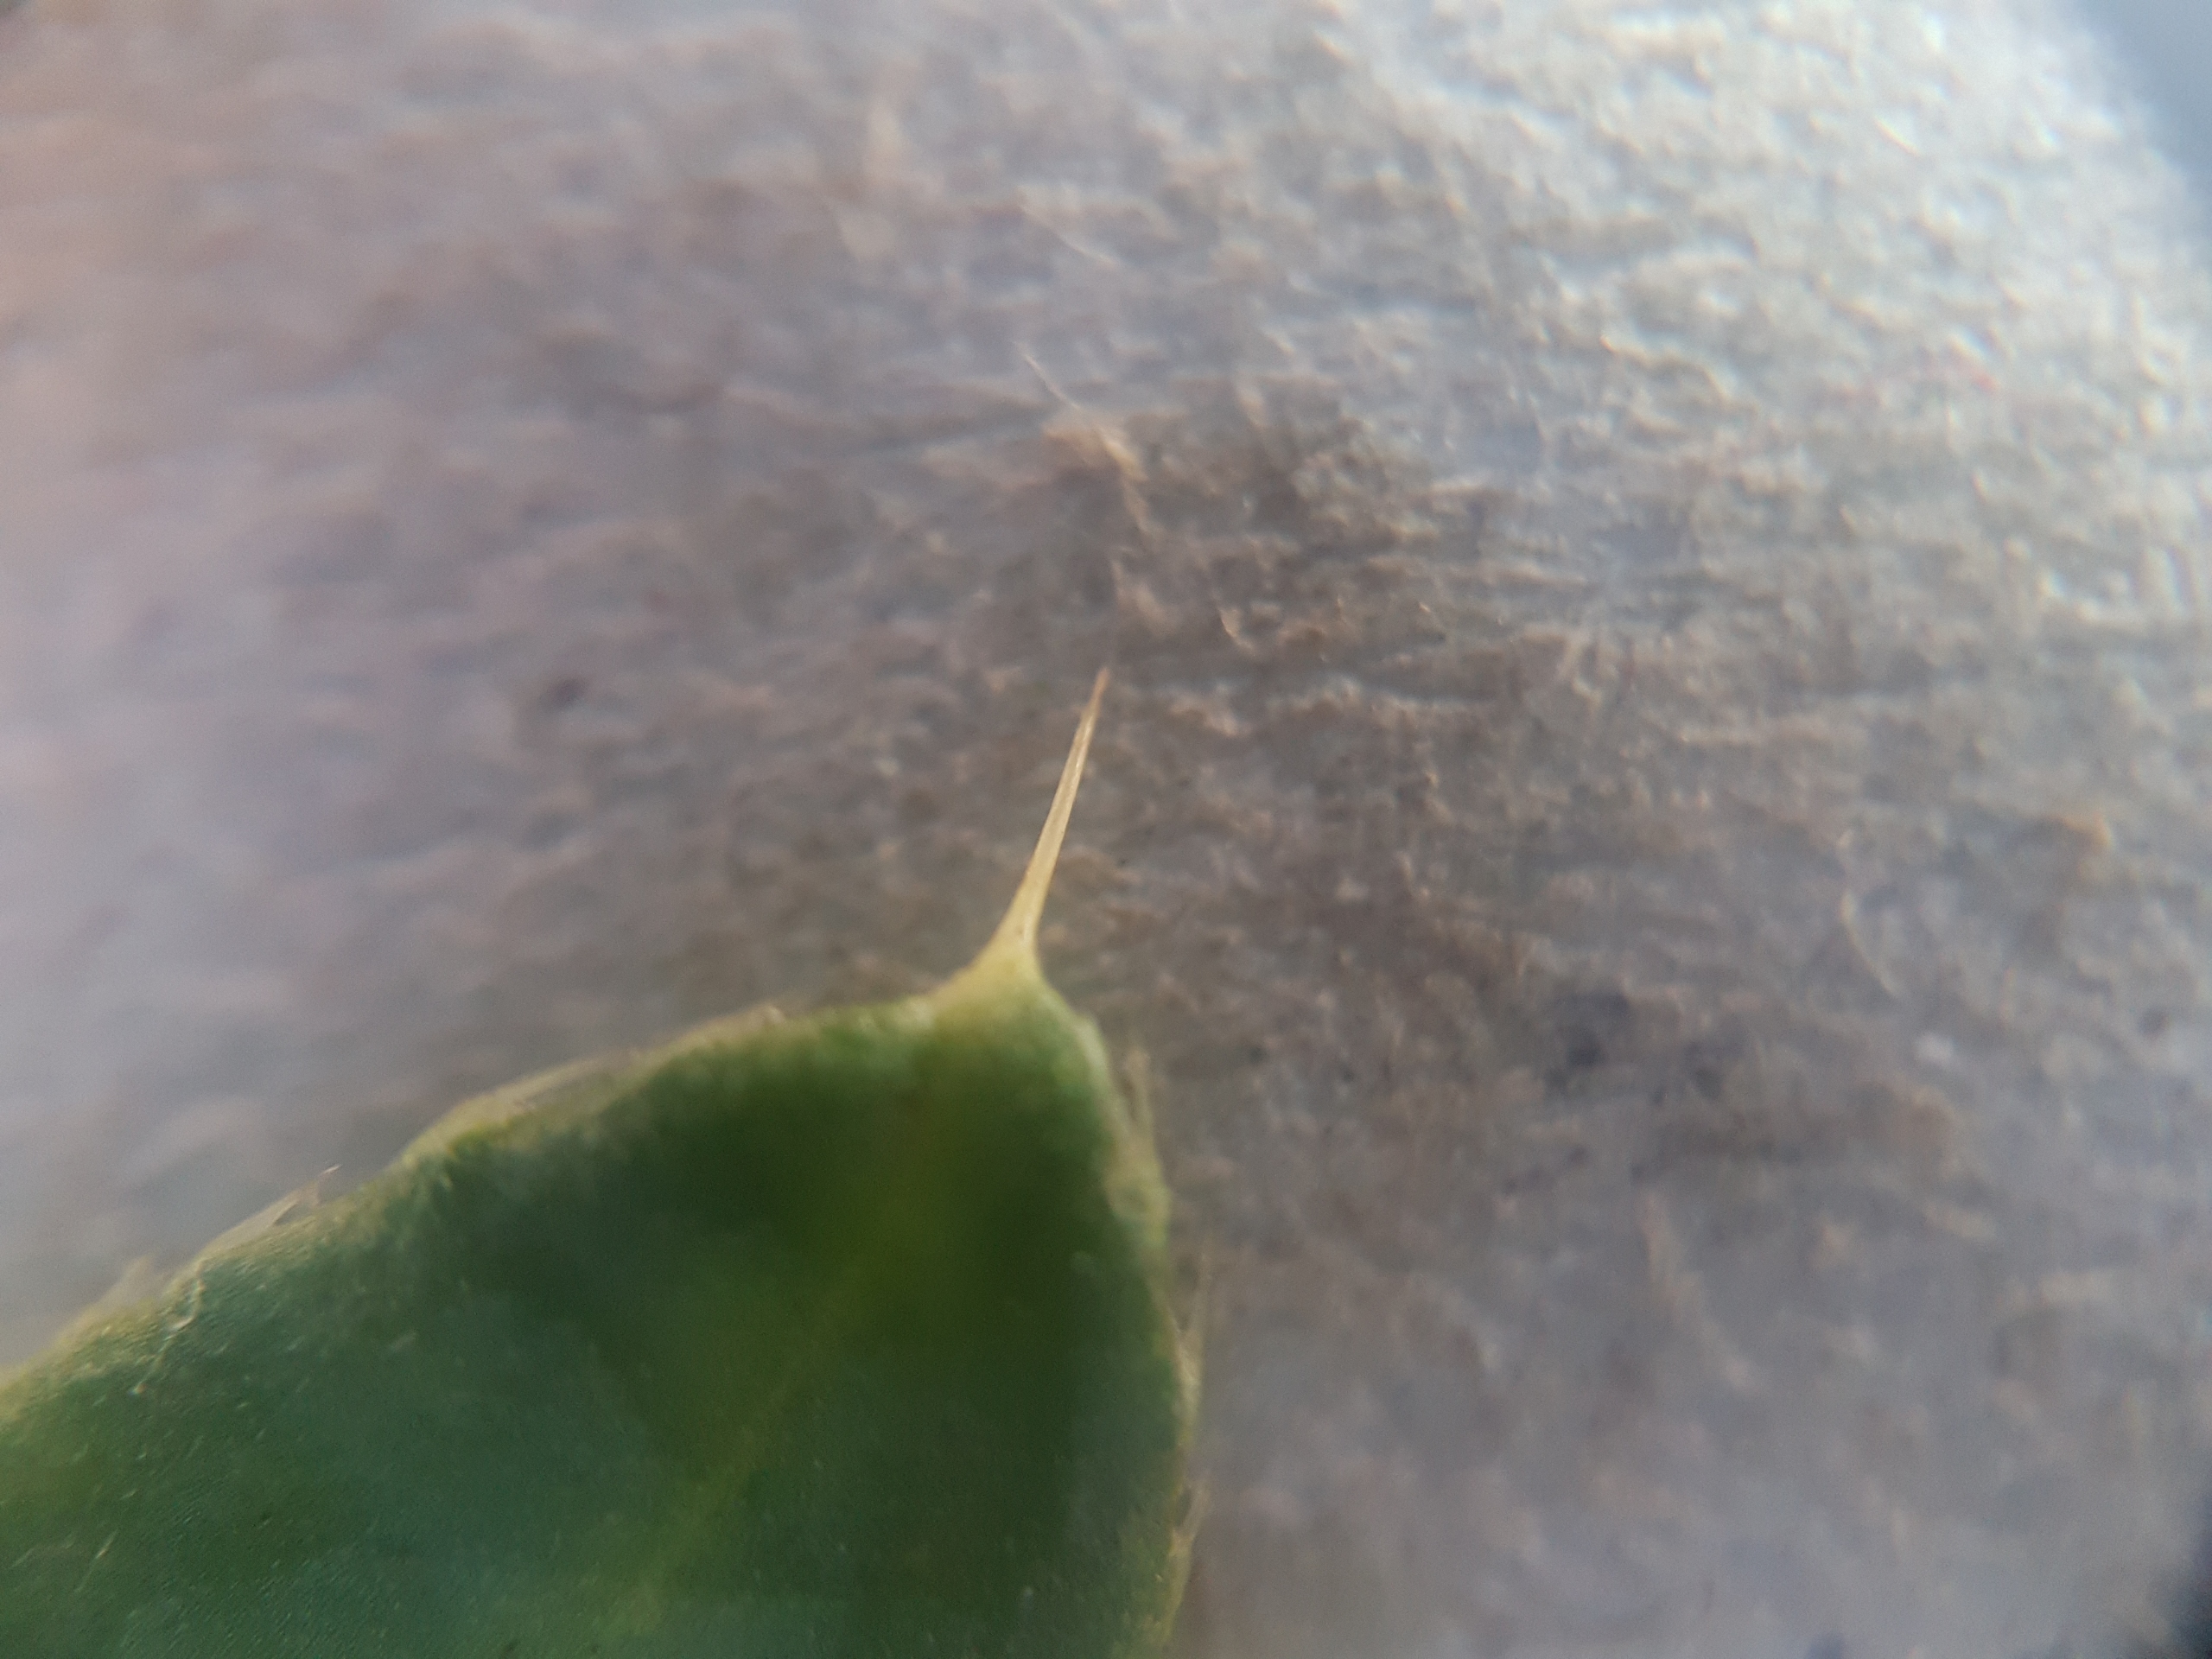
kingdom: Plantae
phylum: Tracheophyta
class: Magnoliopsida
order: Asterales
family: Asteraceae
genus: Cirsium
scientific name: Cirsium arvense
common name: Ager-tidsel
